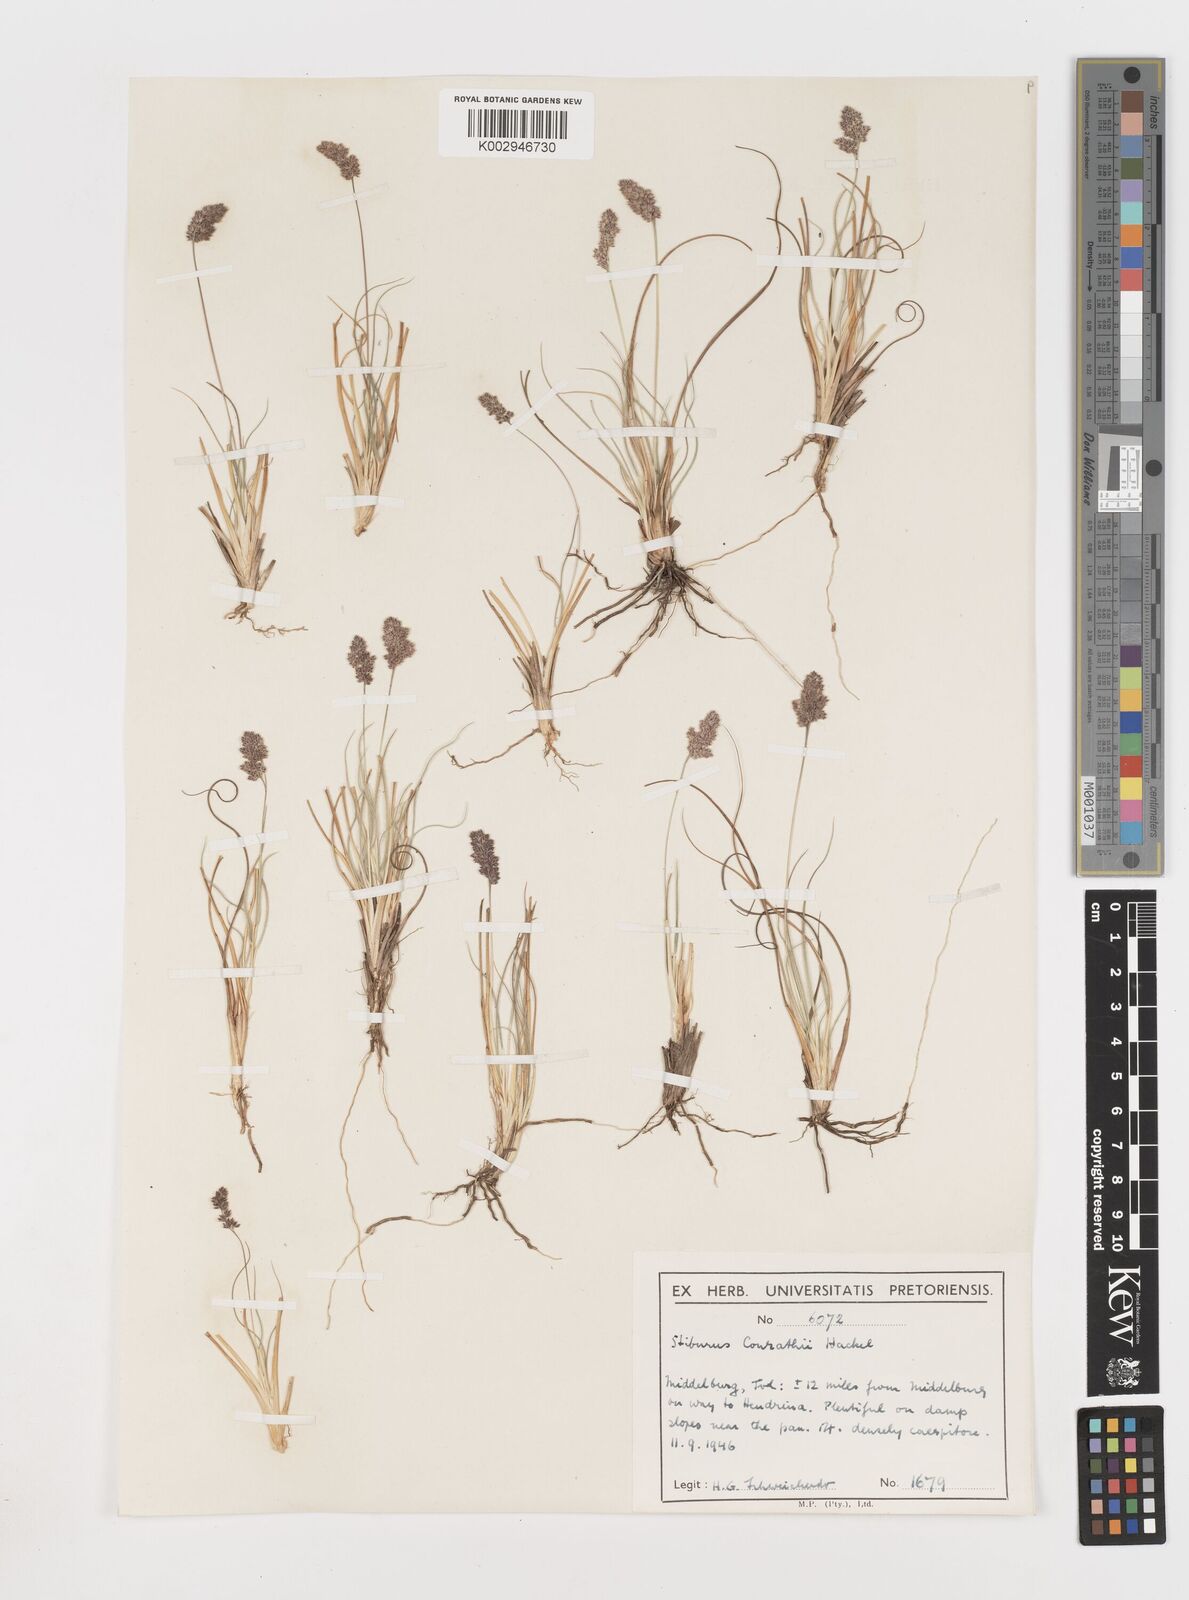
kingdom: Plantae
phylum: Tracheophyta
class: Liliopsida
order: Poales
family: Poaceae
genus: Stiburus
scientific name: Stiburus conrathii
